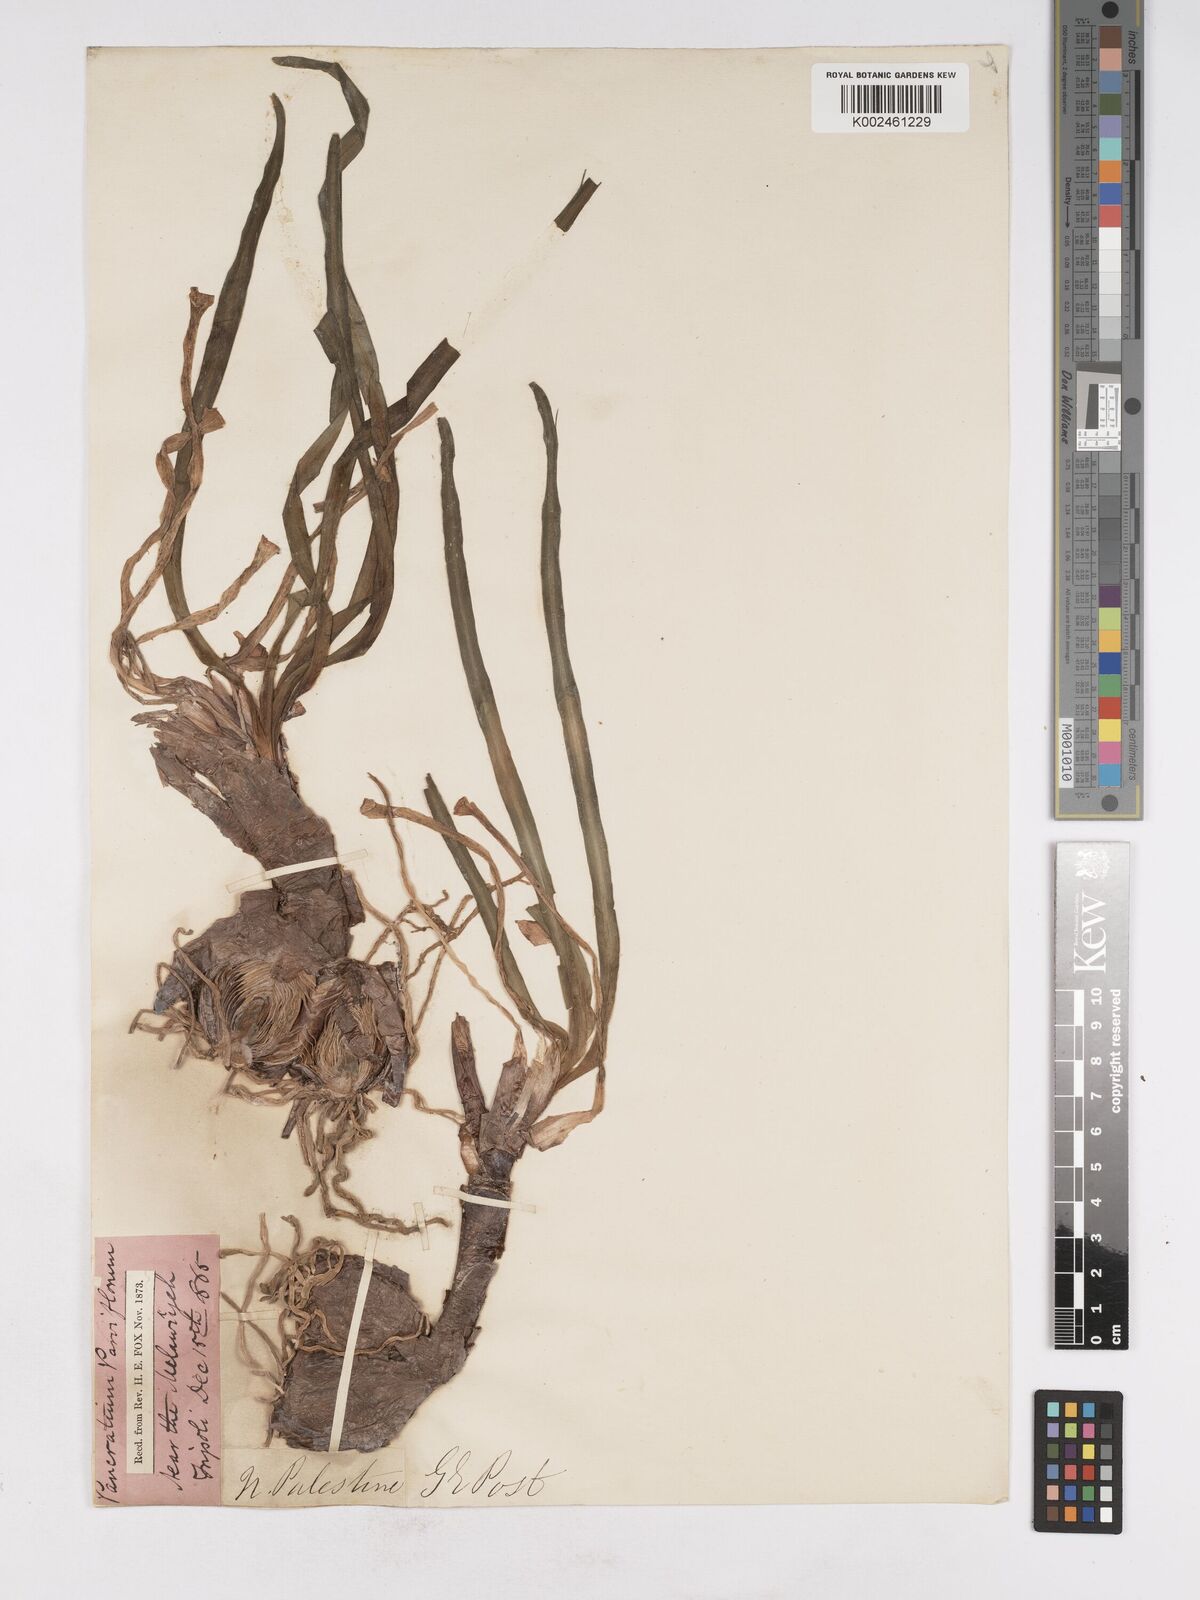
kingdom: Plantae
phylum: Tracheophyta
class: Liliopsida
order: Asparagales
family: Amaryllidaceae
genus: Vagaria
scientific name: Vagaria parviflora
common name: Small-flowered pancratium
